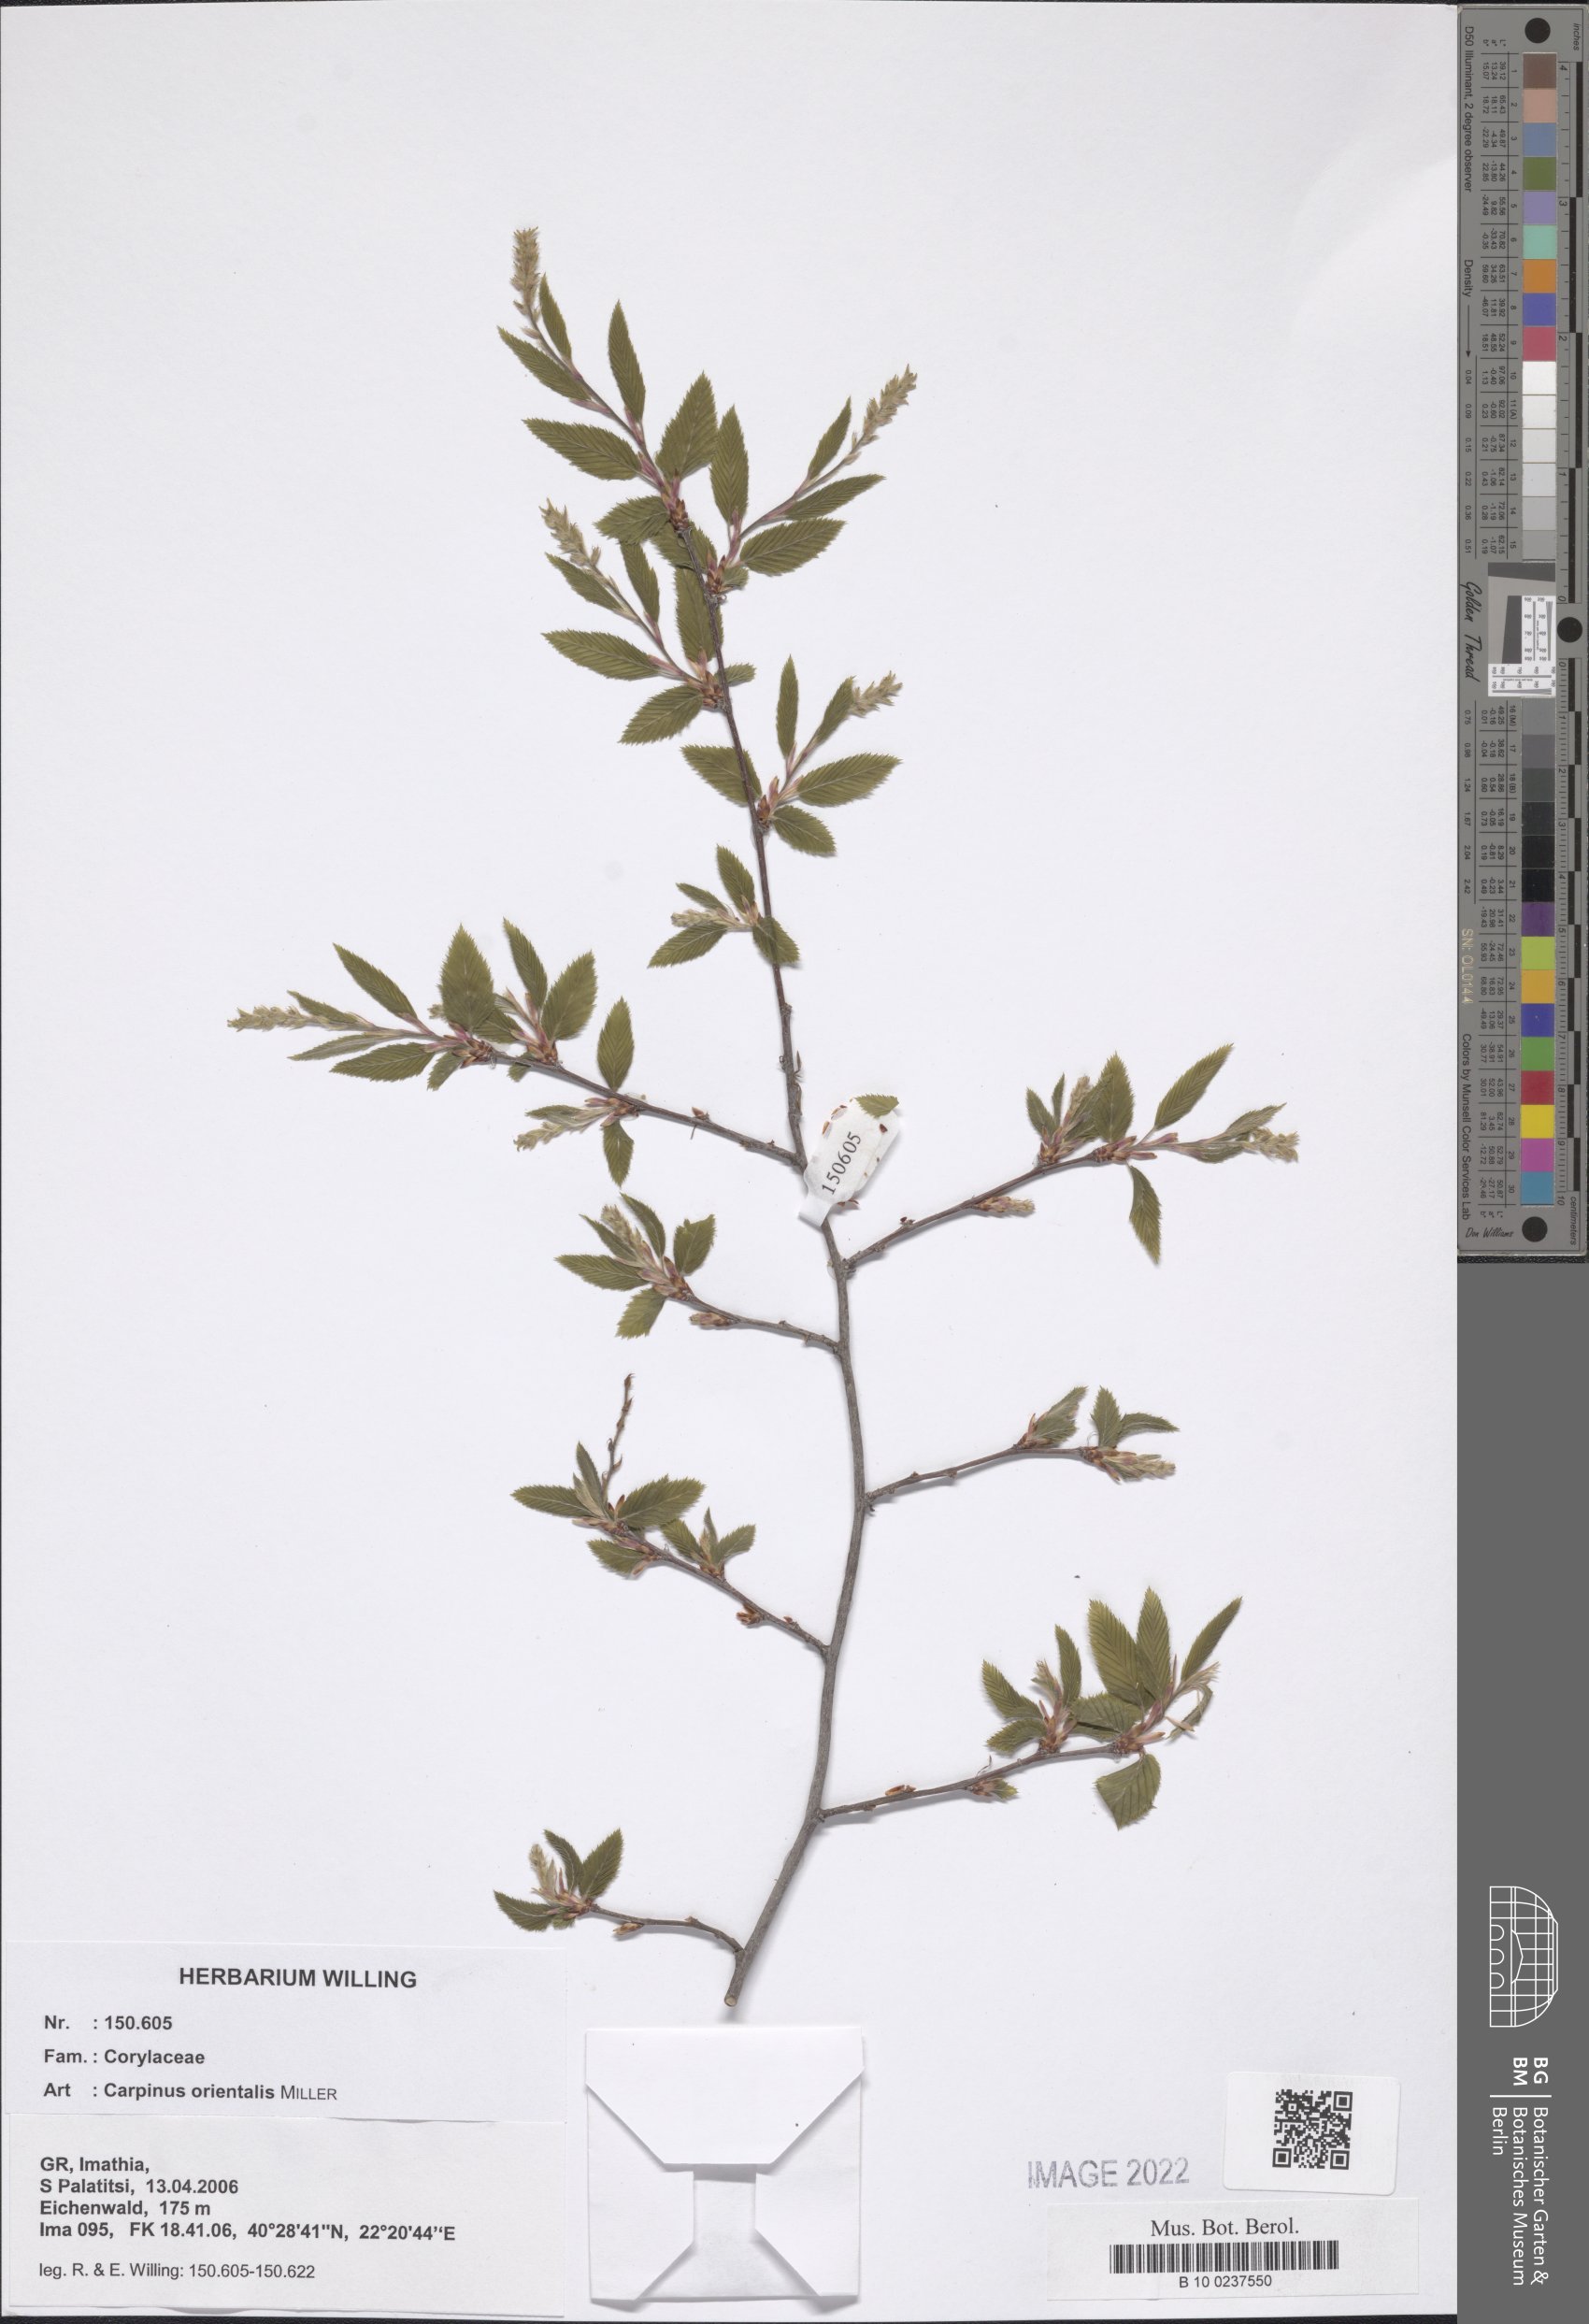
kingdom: Plantae
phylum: Tracheophyta
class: Magnoliopsida
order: Fagales
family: Betulaceae
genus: Carpinus
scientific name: Carpinus orientalis
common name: Eastern hornbeam
